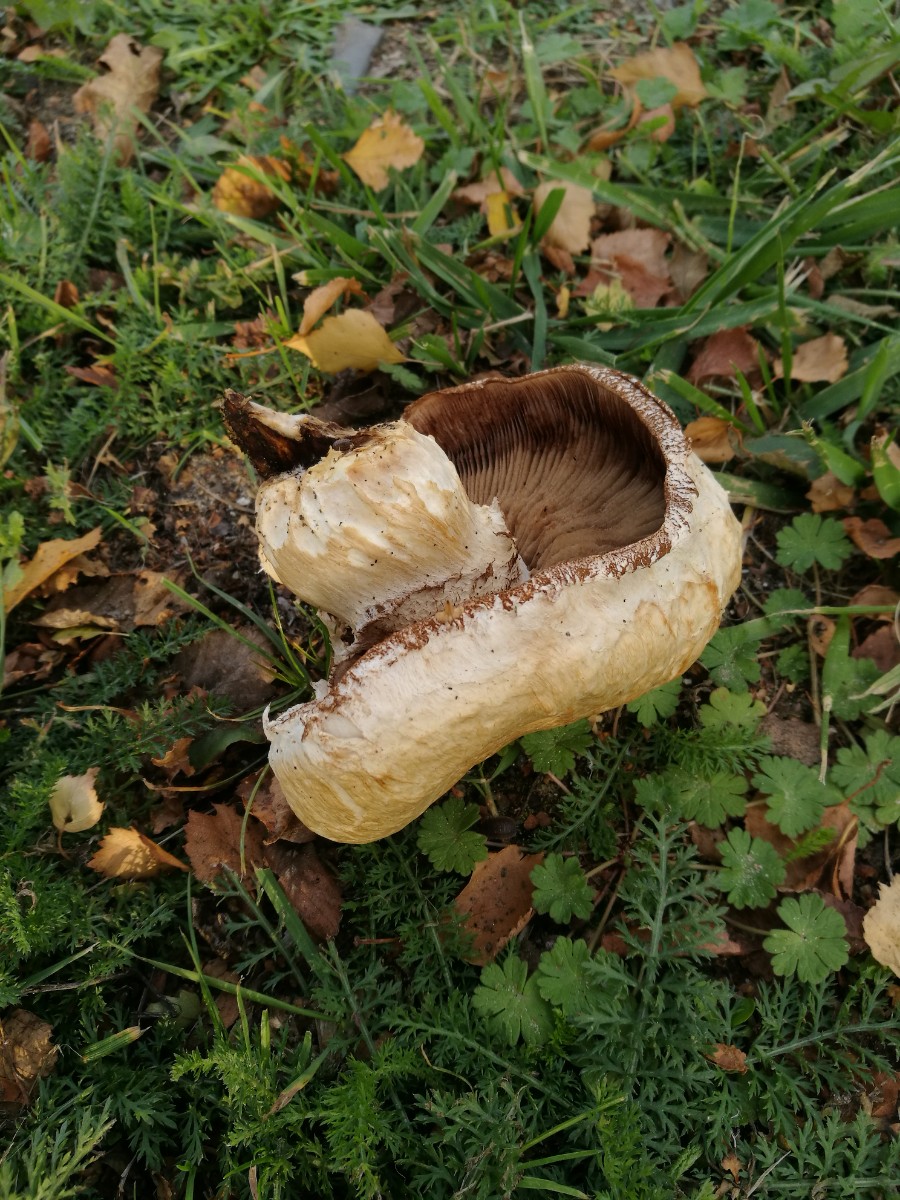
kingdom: Fungi
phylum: Basidiomycota
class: Agaricomycetes
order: Agaricales
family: Strophariaceae
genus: Pholiota
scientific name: Pholiota populnea
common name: poppel-kæmpeskælhat
